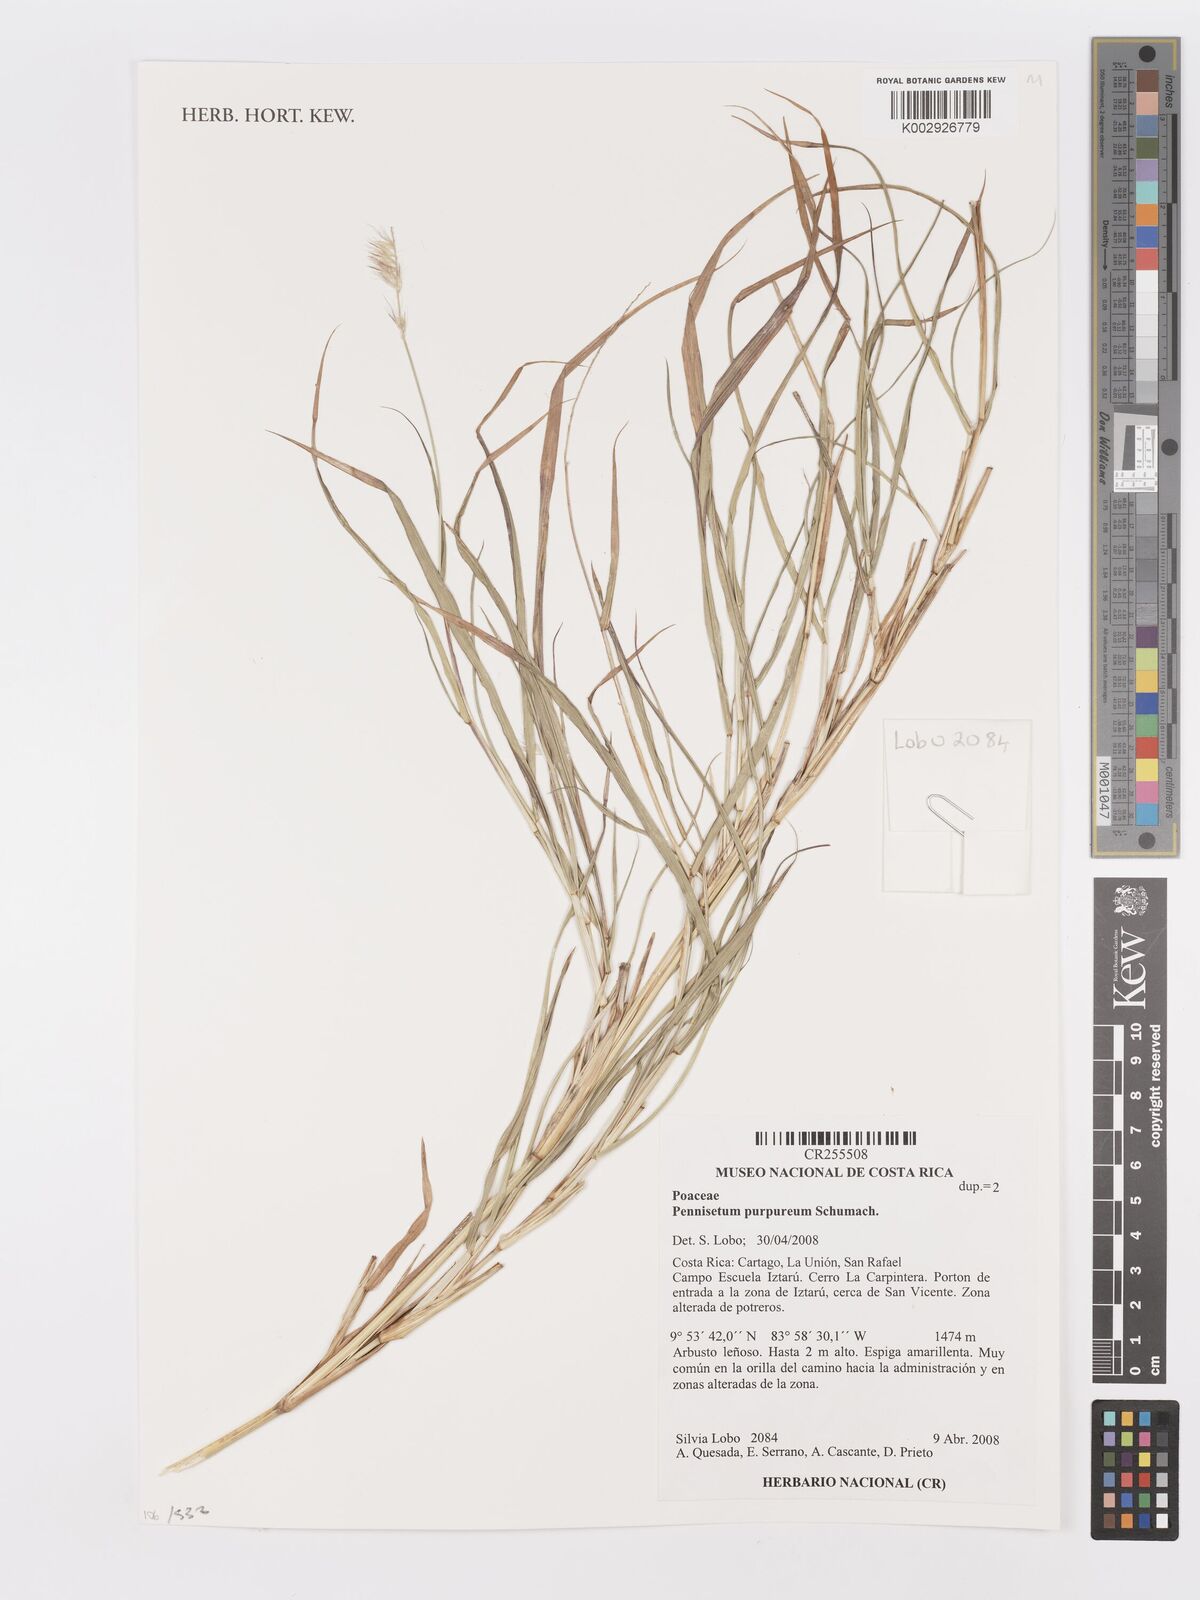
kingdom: Plantae
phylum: Tracheophyta
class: Liliopsida
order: Poales
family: Poaceae
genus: Cenchrus
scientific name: Cenchrus purpureus
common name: Elephant grass
